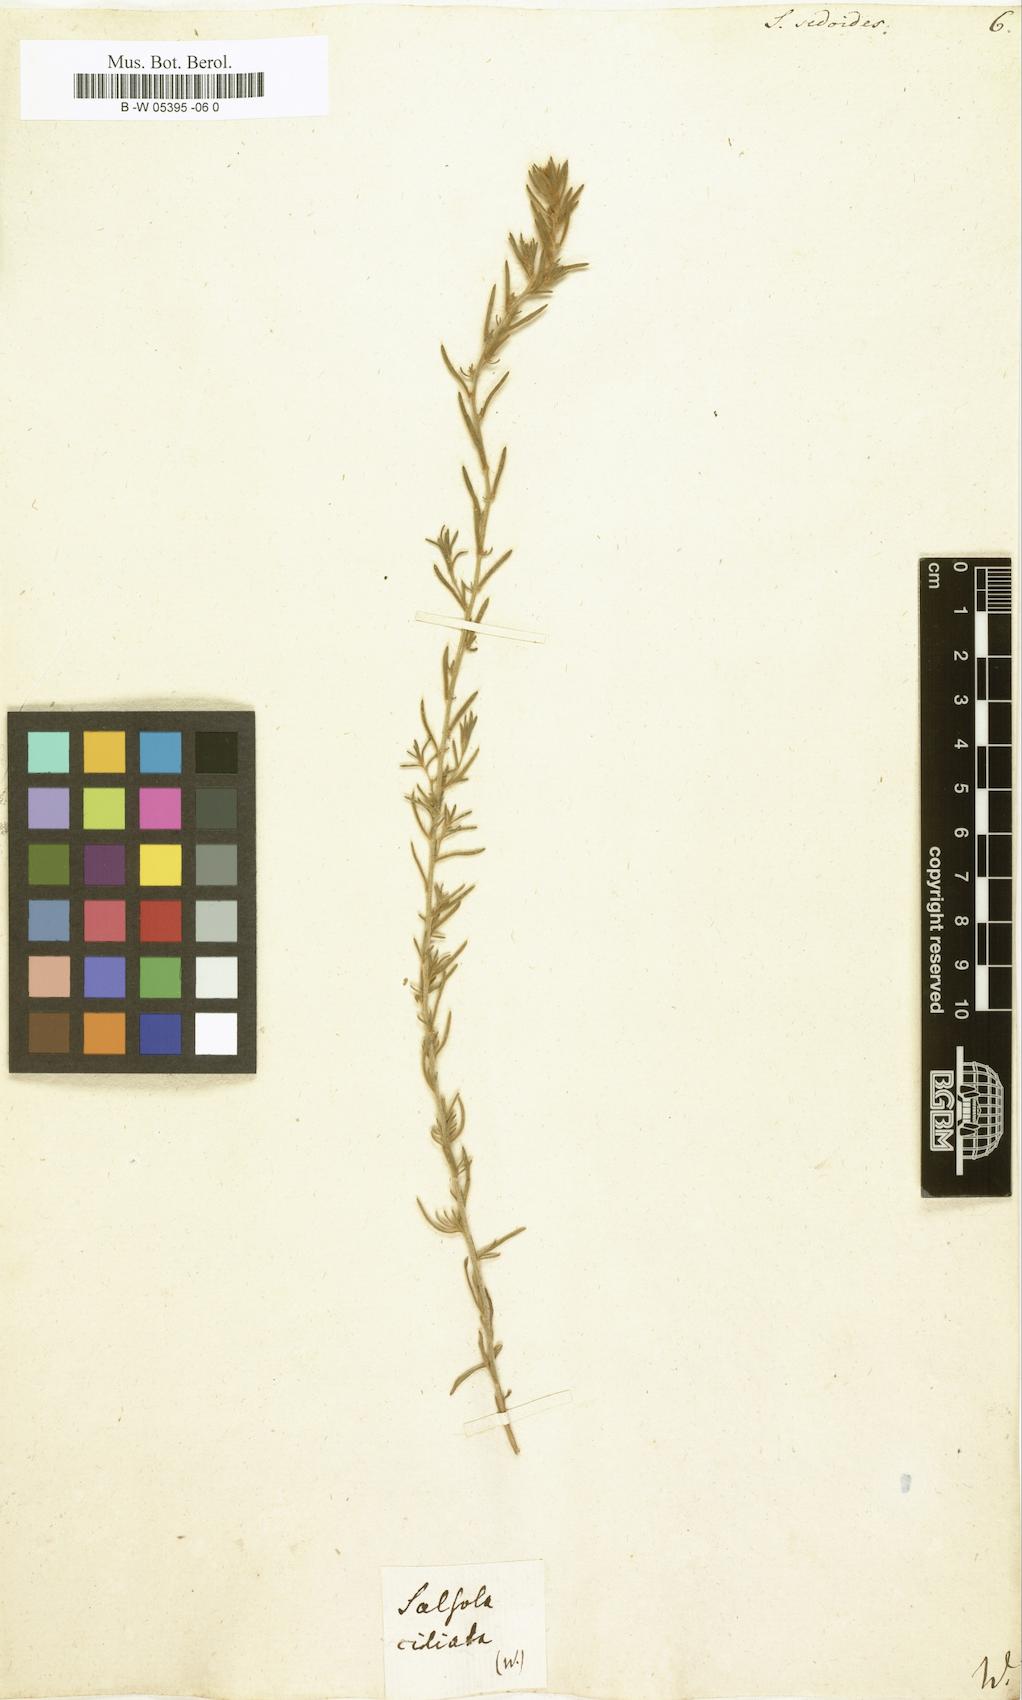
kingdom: Plantae
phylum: Tracheophyta
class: Magnoliopsida
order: Caryophyllales
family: Amaranthaceae
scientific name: Amaranthaceae
